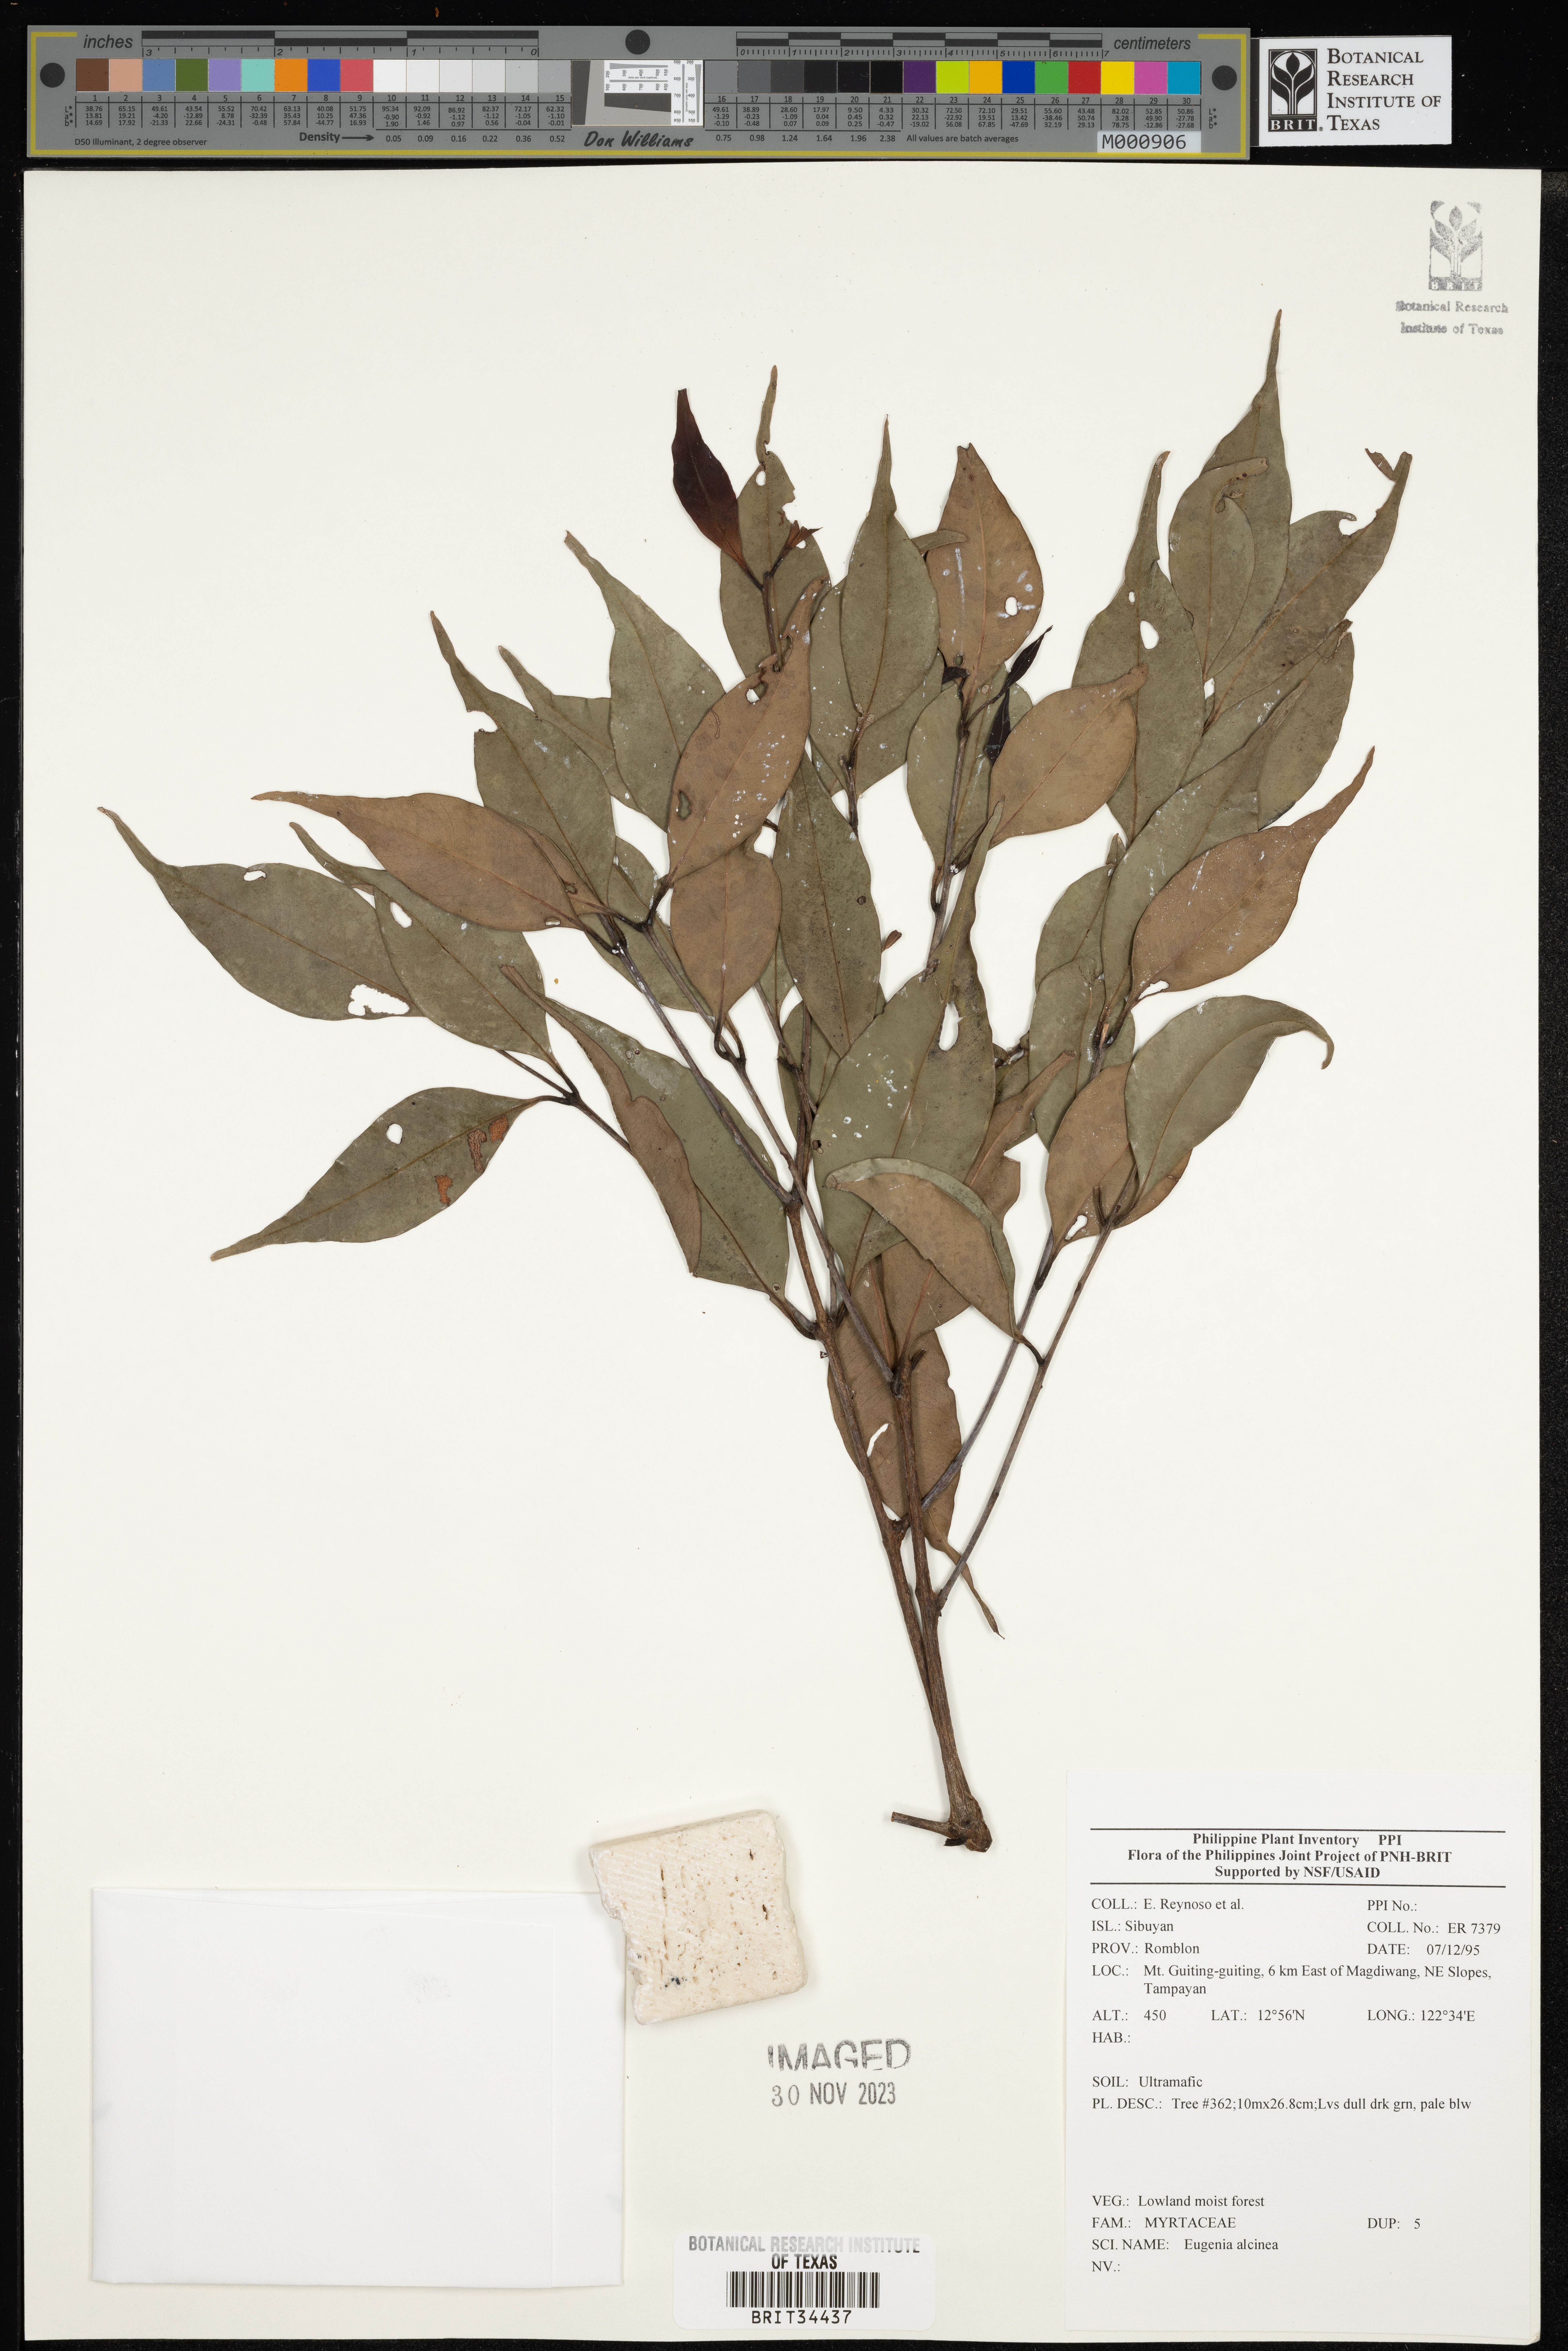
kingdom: Plantae
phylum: Tracheophyta
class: Magnoliopsida
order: Myrtales
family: Myrtaceae
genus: Eugenia
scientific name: Eugenia
